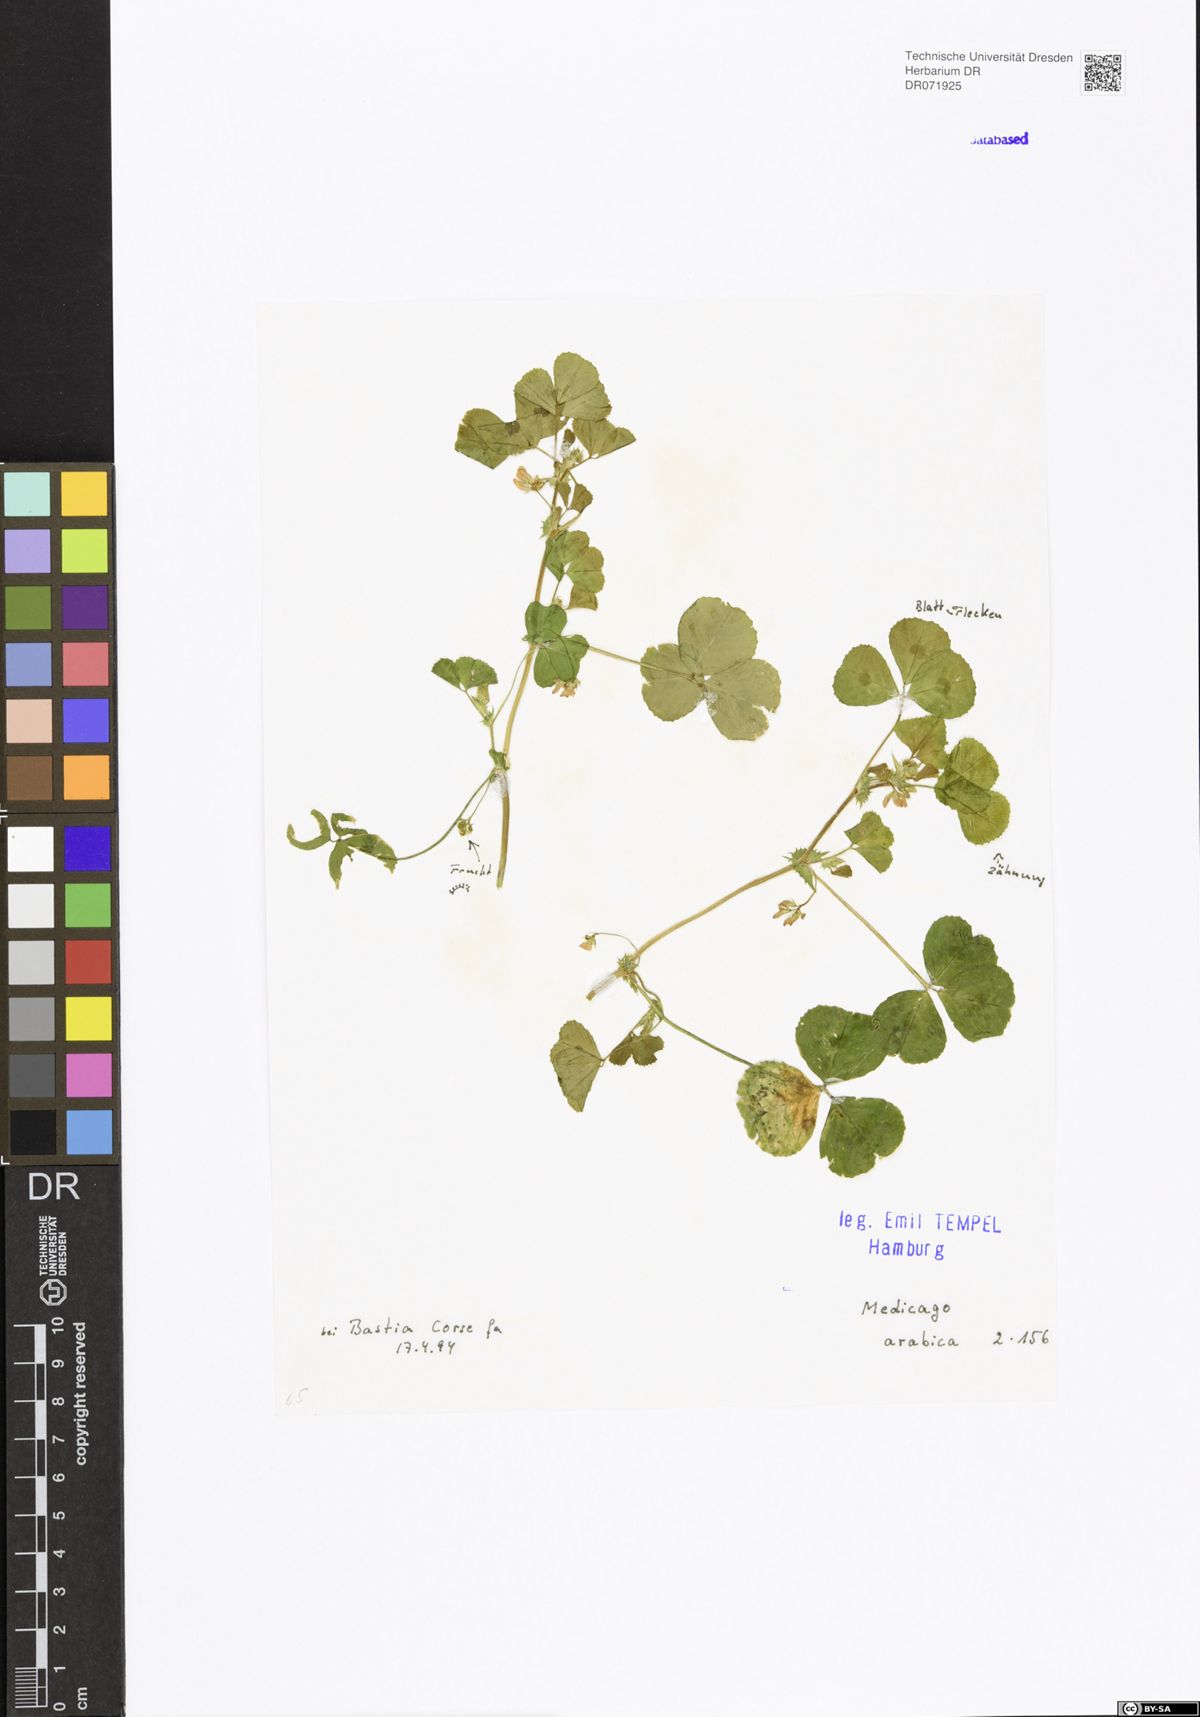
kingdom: Plantae
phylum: Tracheophyta
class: Magnoliopsida
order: Fabales
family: Fabaceae
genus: Medicago
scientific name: Medicago arabica
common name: Spotted medick
